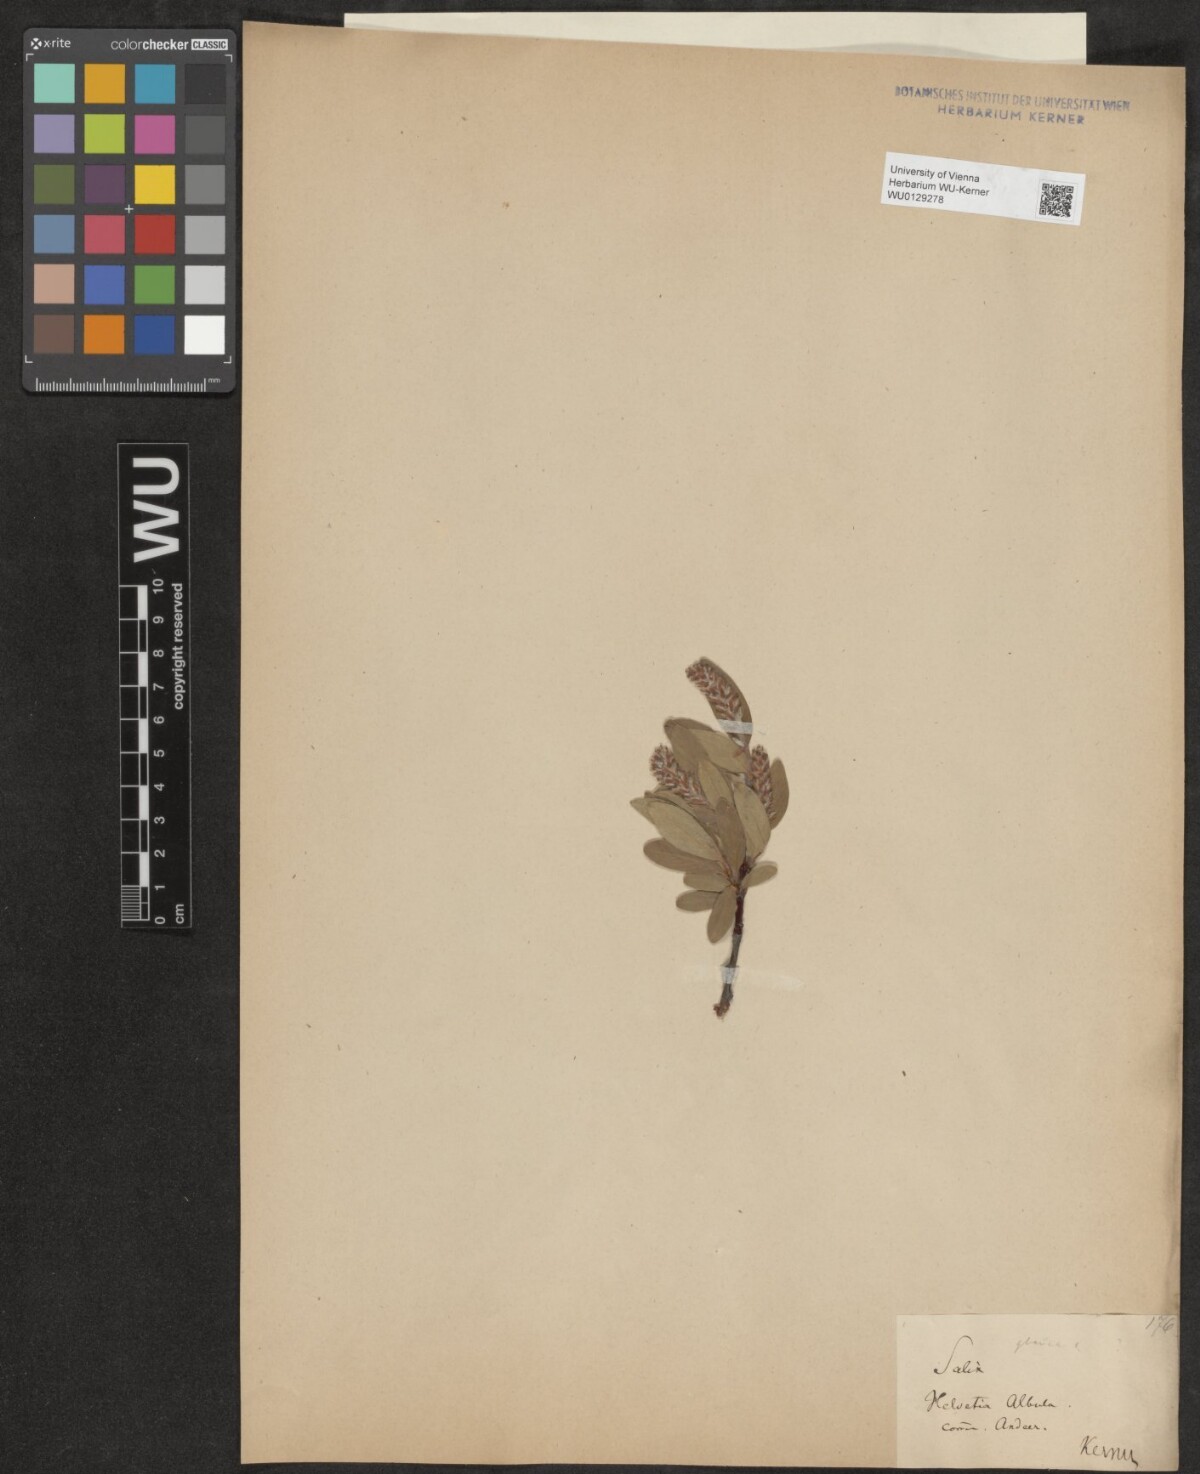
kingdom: Plantae
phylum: Tracheophyta
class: Magnoliopsida
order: Malpighiales
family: Salicaceae
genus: Salix
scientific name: Salix glauca
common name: Glaucous willow
